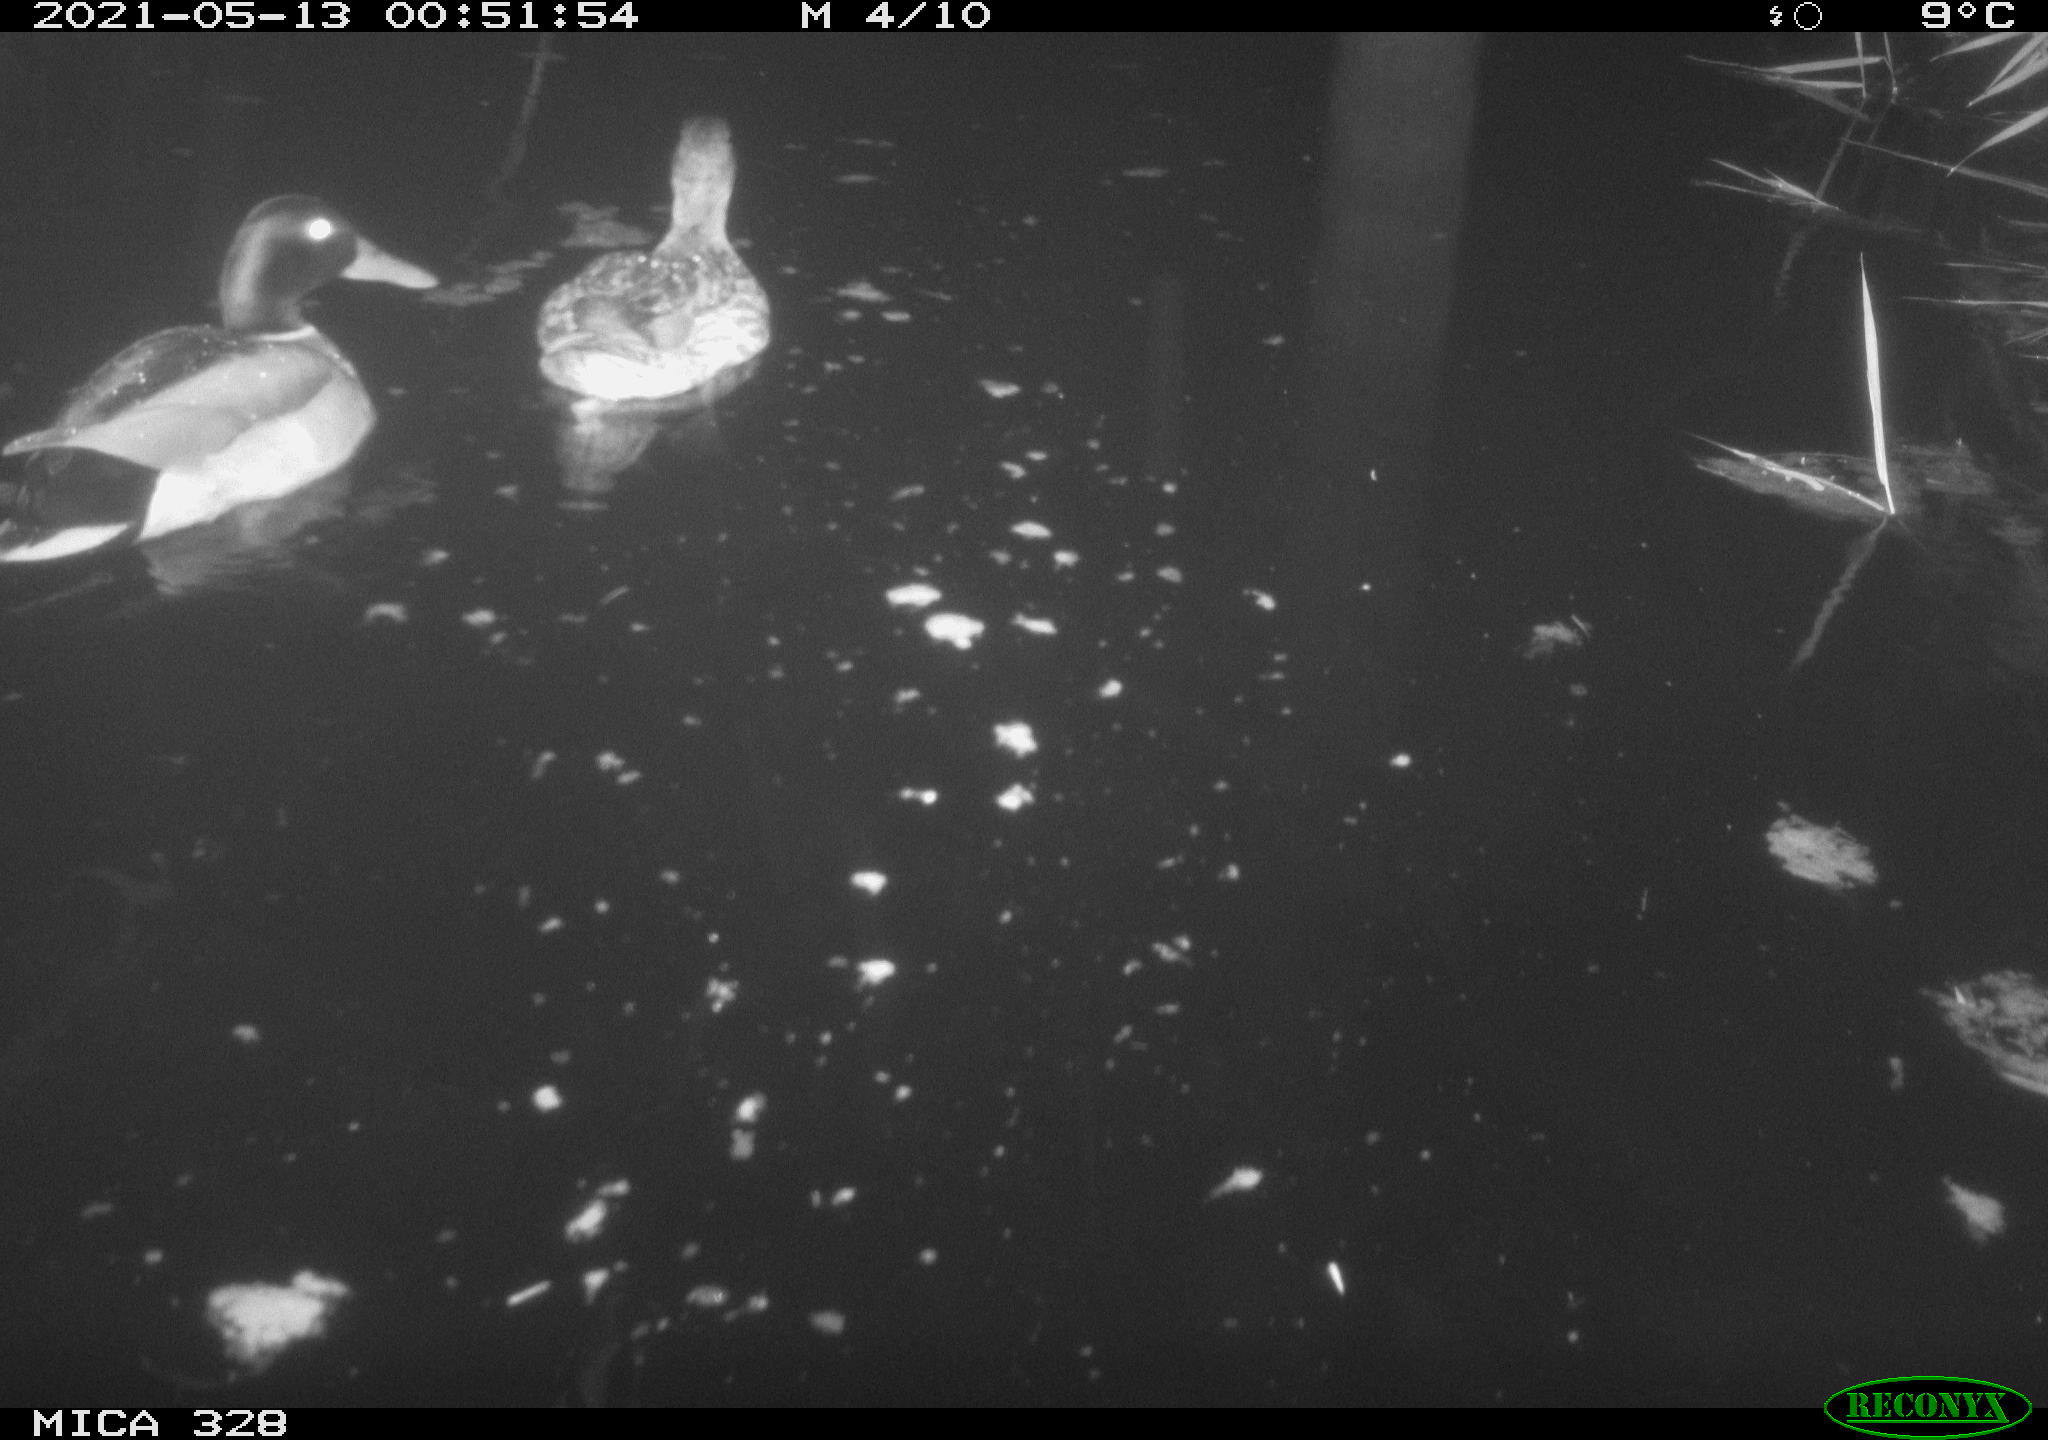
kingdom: Animalia
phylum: Chordata
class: Aves
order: Anseriformes
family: Anatidae
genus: Anas
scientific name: Anas platyrhynchos
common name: Mallard
